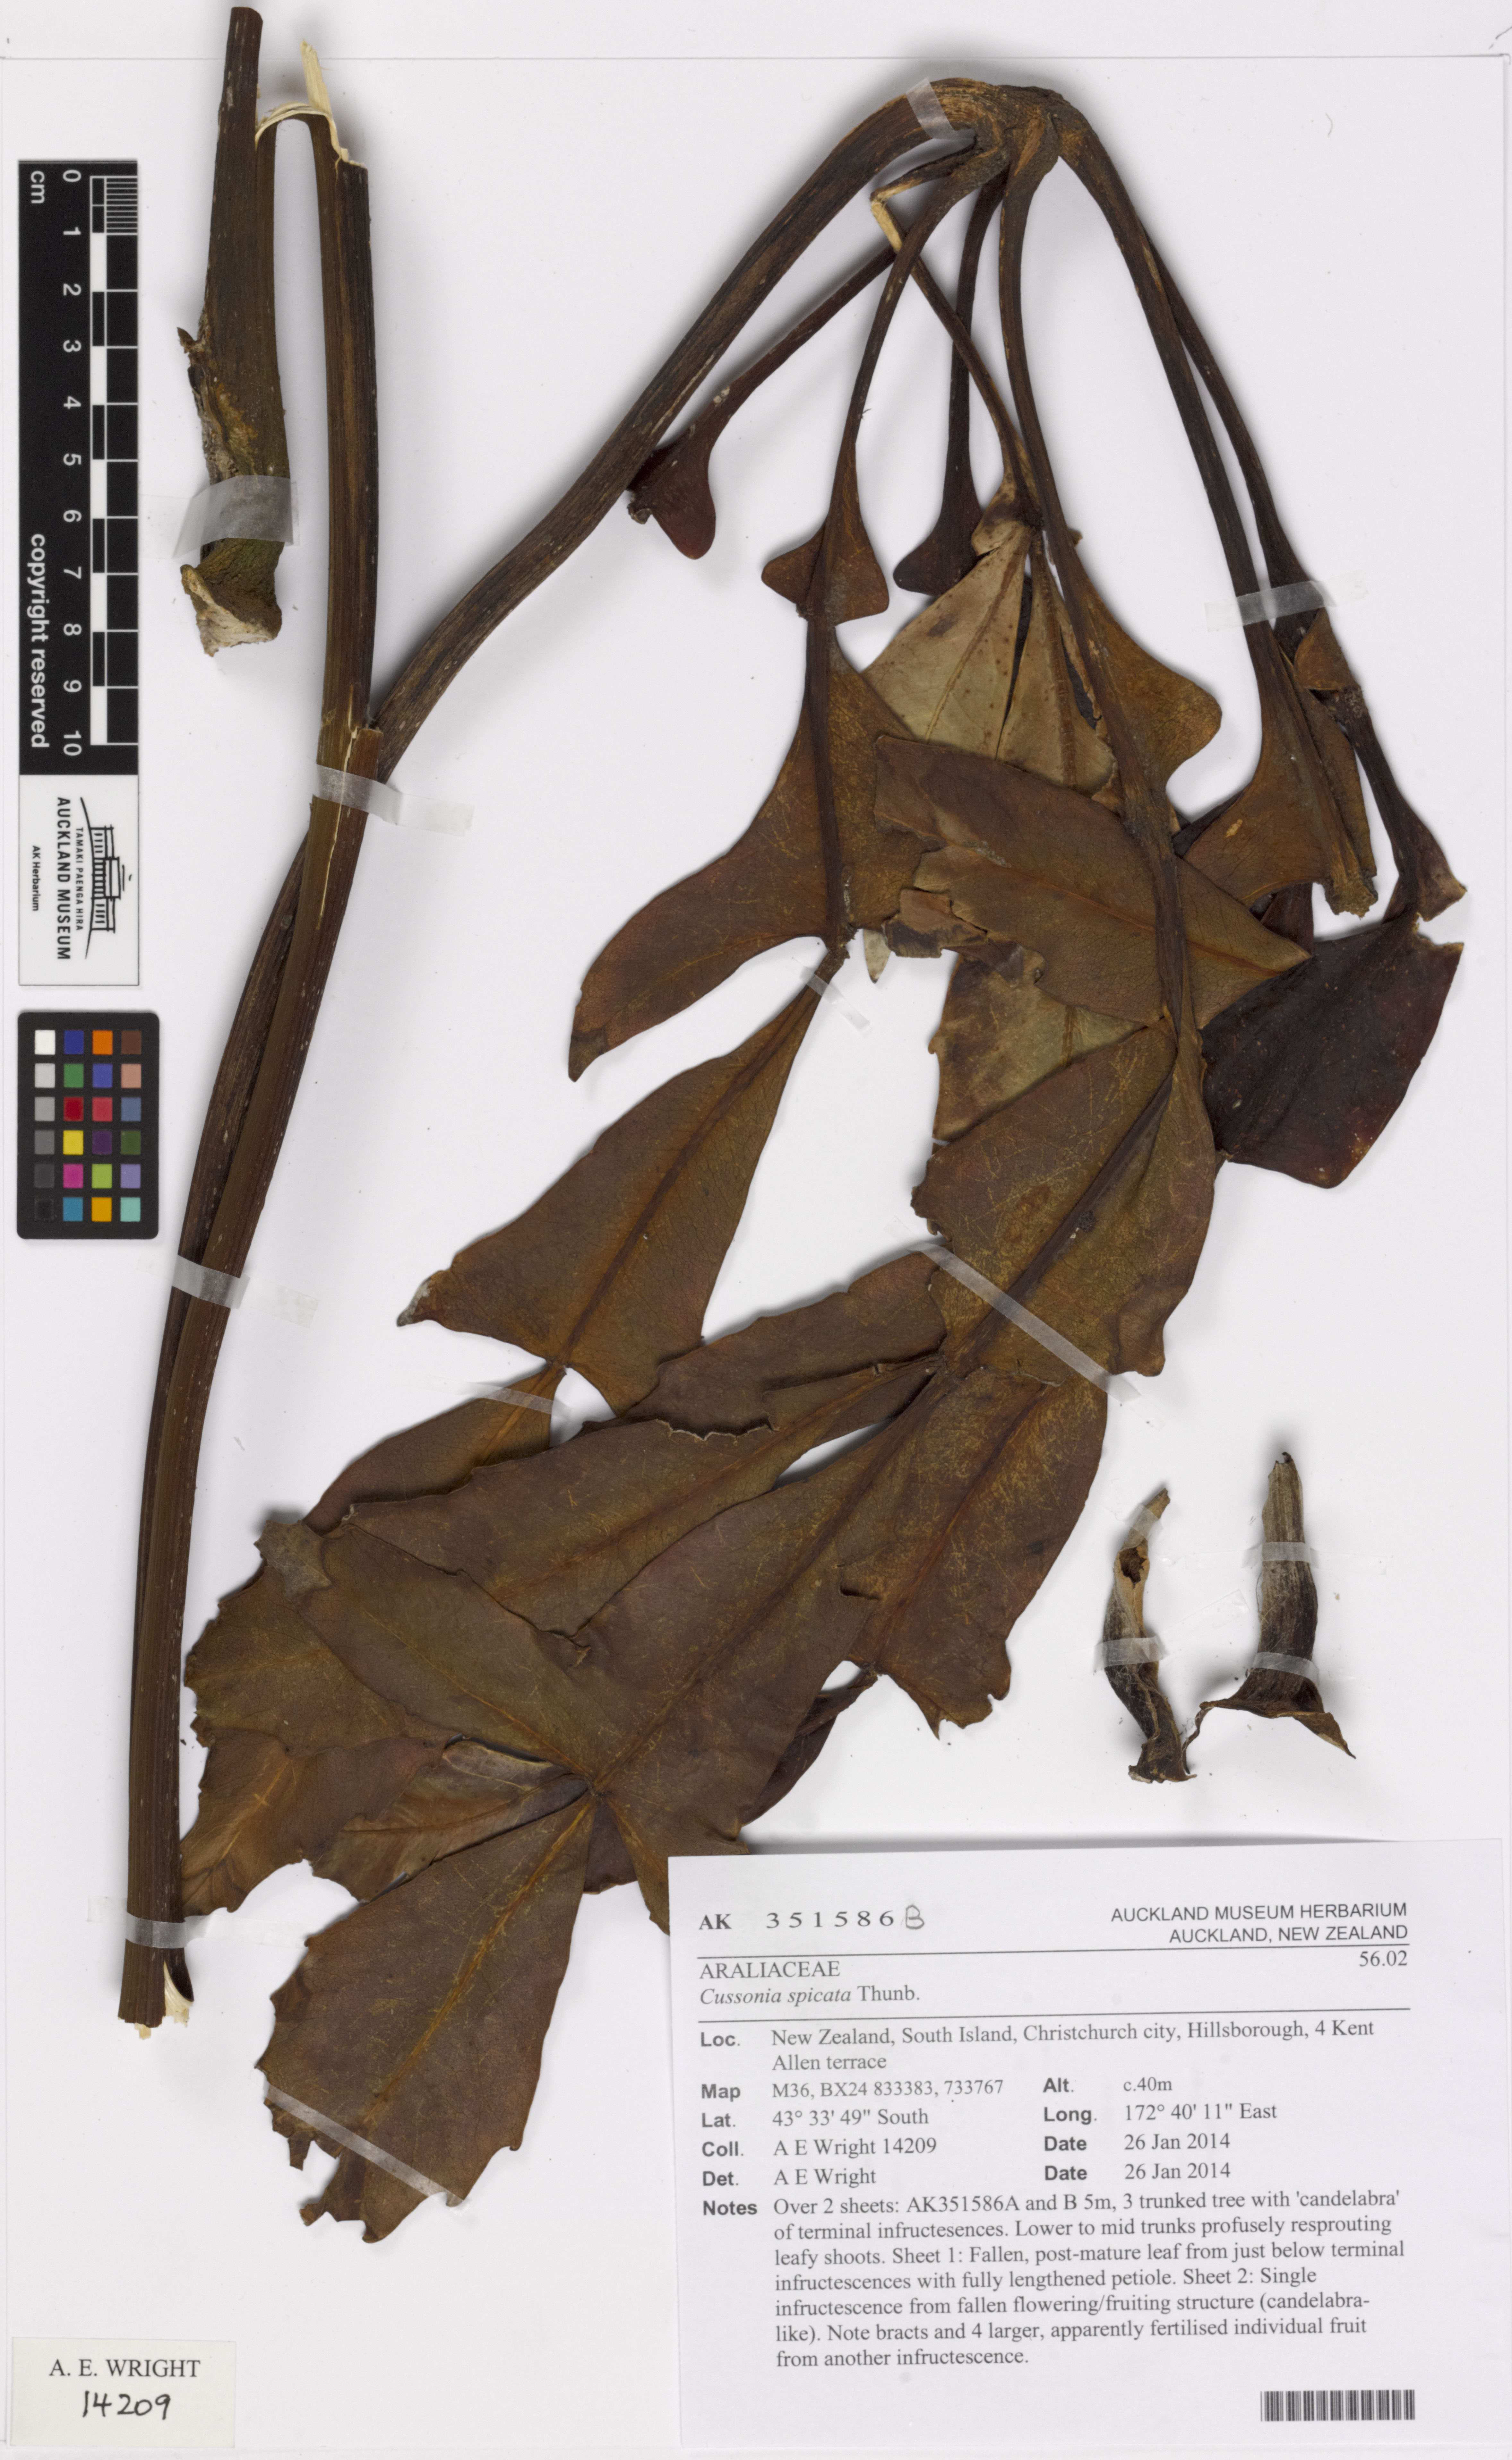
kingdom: Plantae
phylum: Tracheophyta
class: Magnoliopsida
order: Apiales
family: Araliaceae
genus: Cussonia
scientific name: Cussonia spicata
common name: Common cabbagetree
